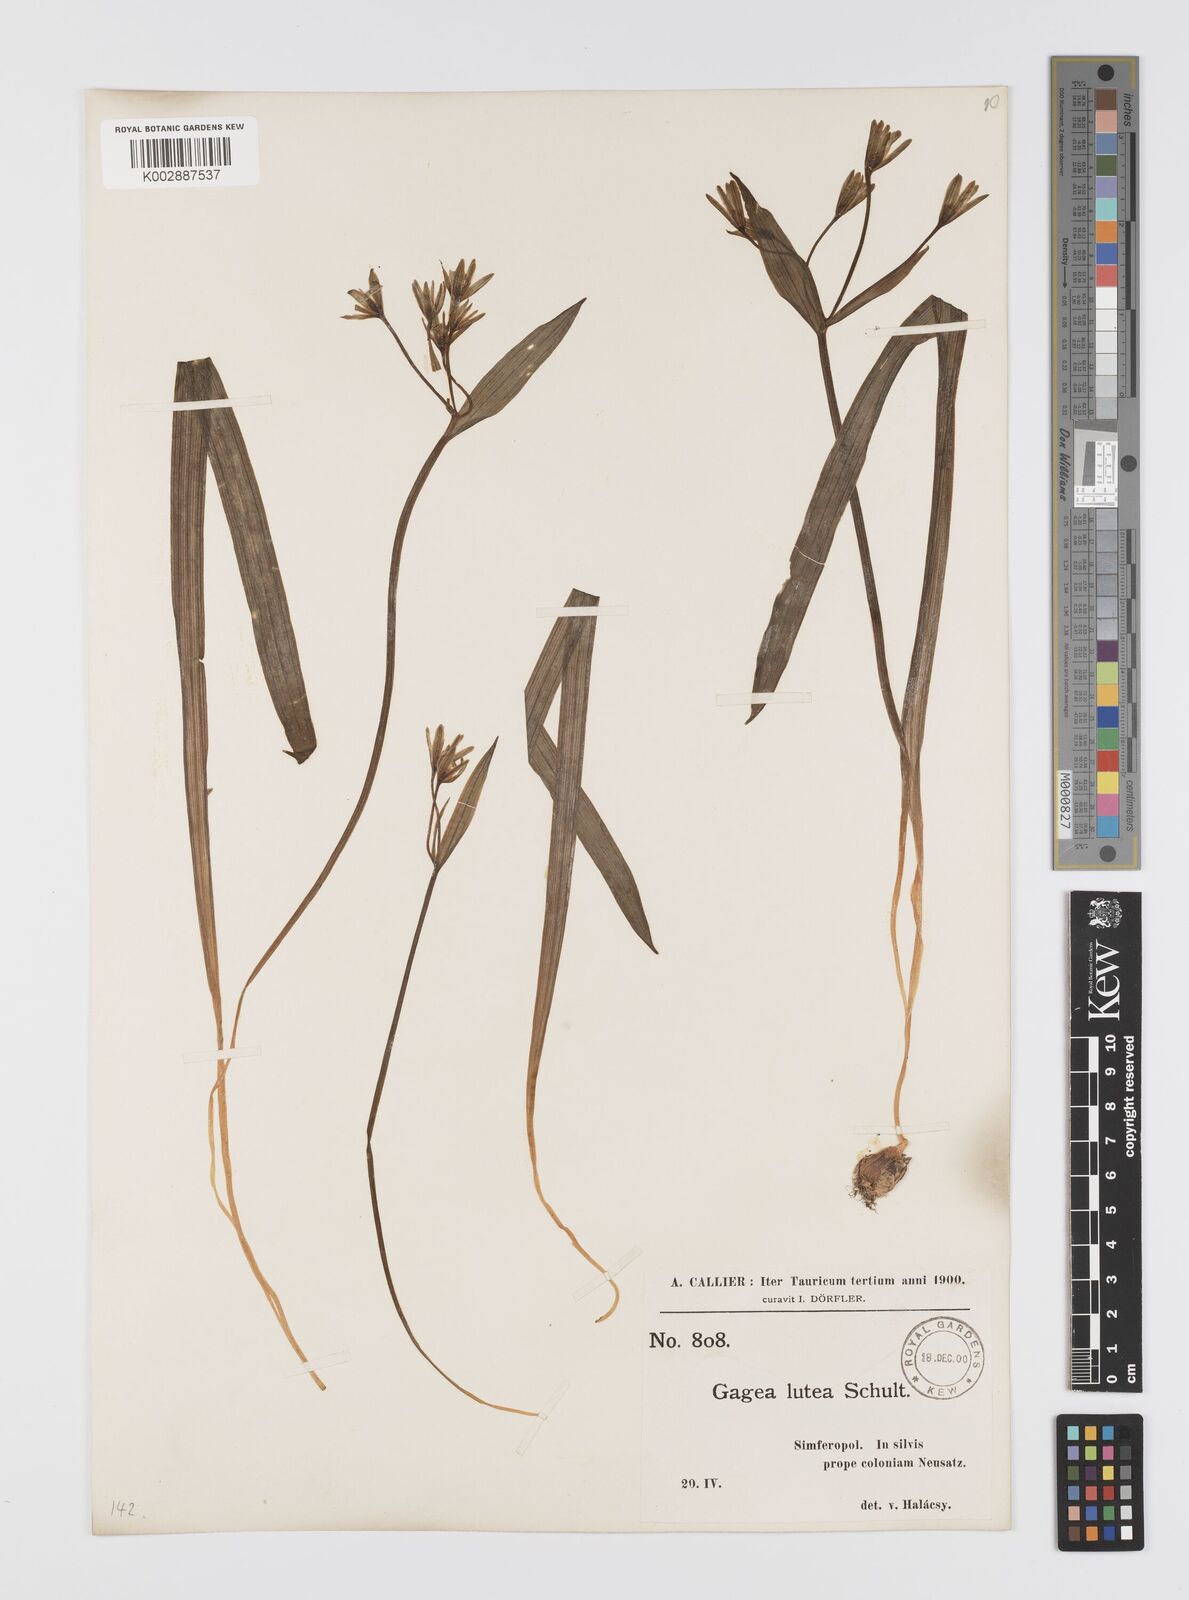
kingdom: Plantae
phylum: Tracheophyta
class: Liliopsida
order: Liliales
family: Liliaceae
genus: Gagea
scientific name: Gagea lutea
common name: Yellow star-of-bethlehem
